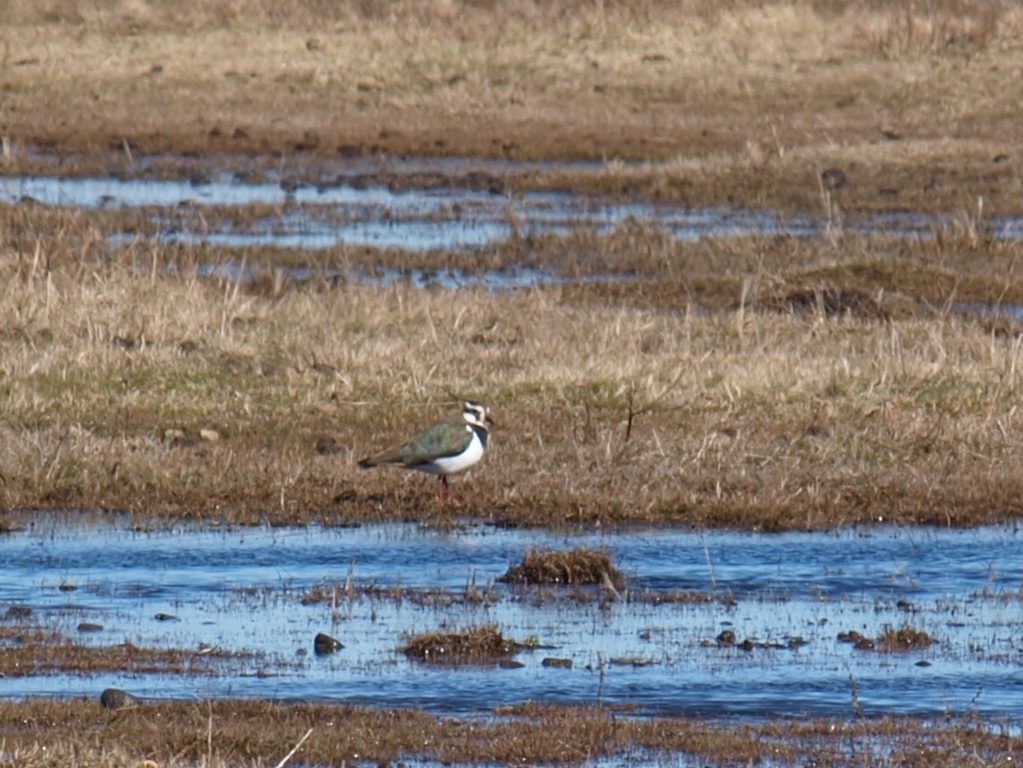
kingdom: Animalia
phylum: Chordata
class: Aves
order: Charadriiformes
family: Charadriidae
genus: Vanellus
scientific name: Vanellus vanellus
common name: Vibe
